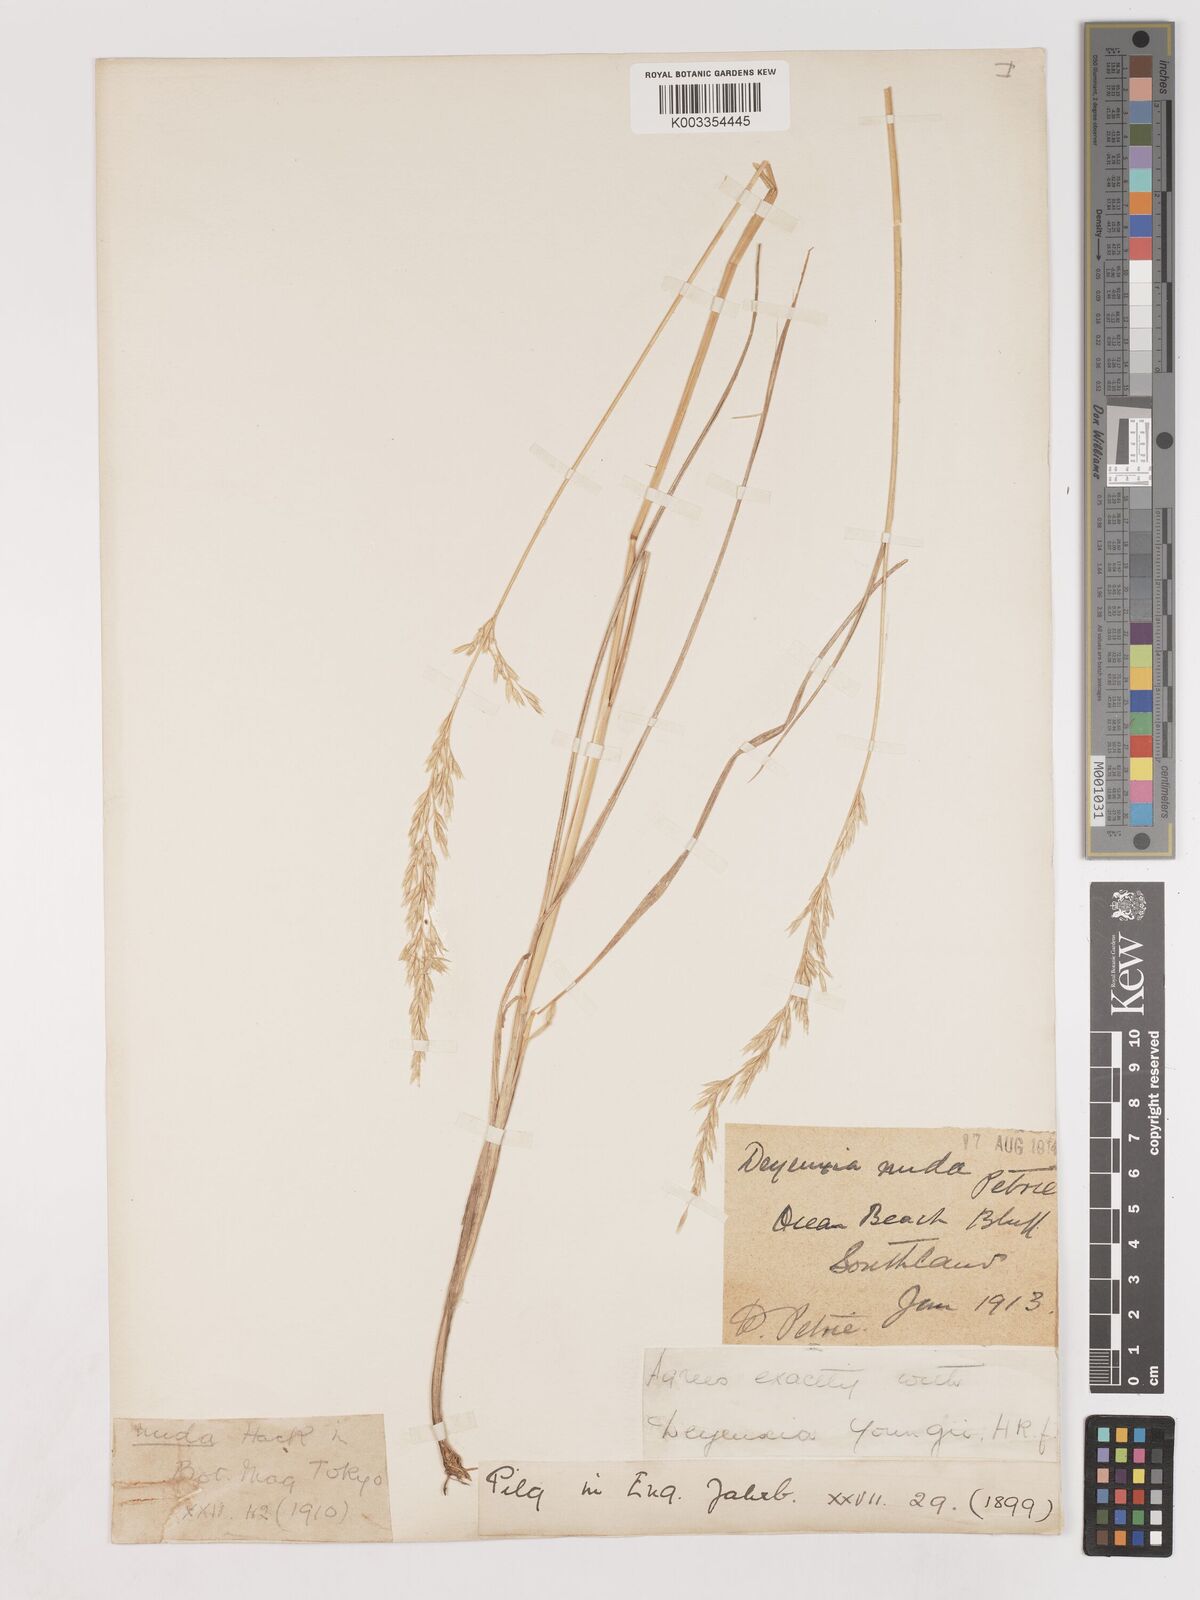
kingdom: Plantae
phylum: Tracheophyta
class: Liliopsida
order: Poales
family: Poaceae
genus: Calamagrostis
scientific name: Calamagrostis youngii
